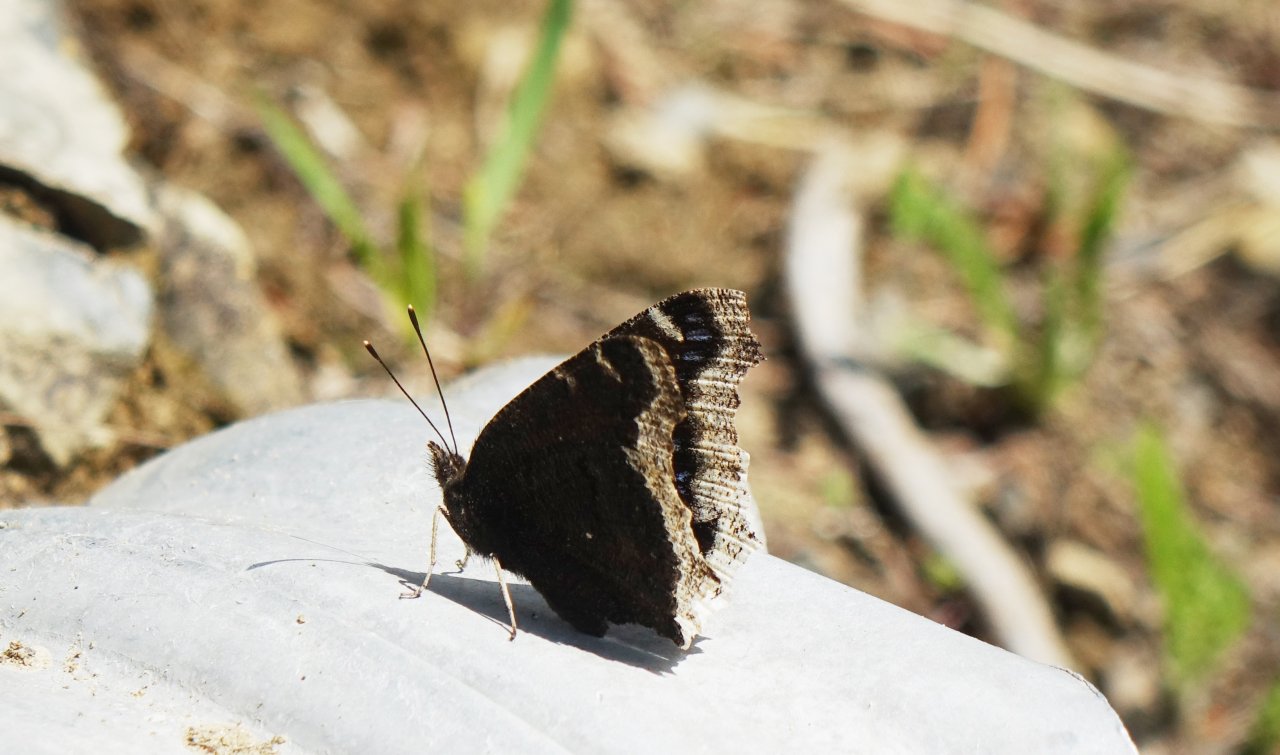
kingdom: Animalia
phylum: Arthropoda
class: Insecta
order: Lepidoptera
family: Nymphalidae
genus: Nymphalis
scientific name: Nymphalis antiopa
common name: Mourning Cloak
